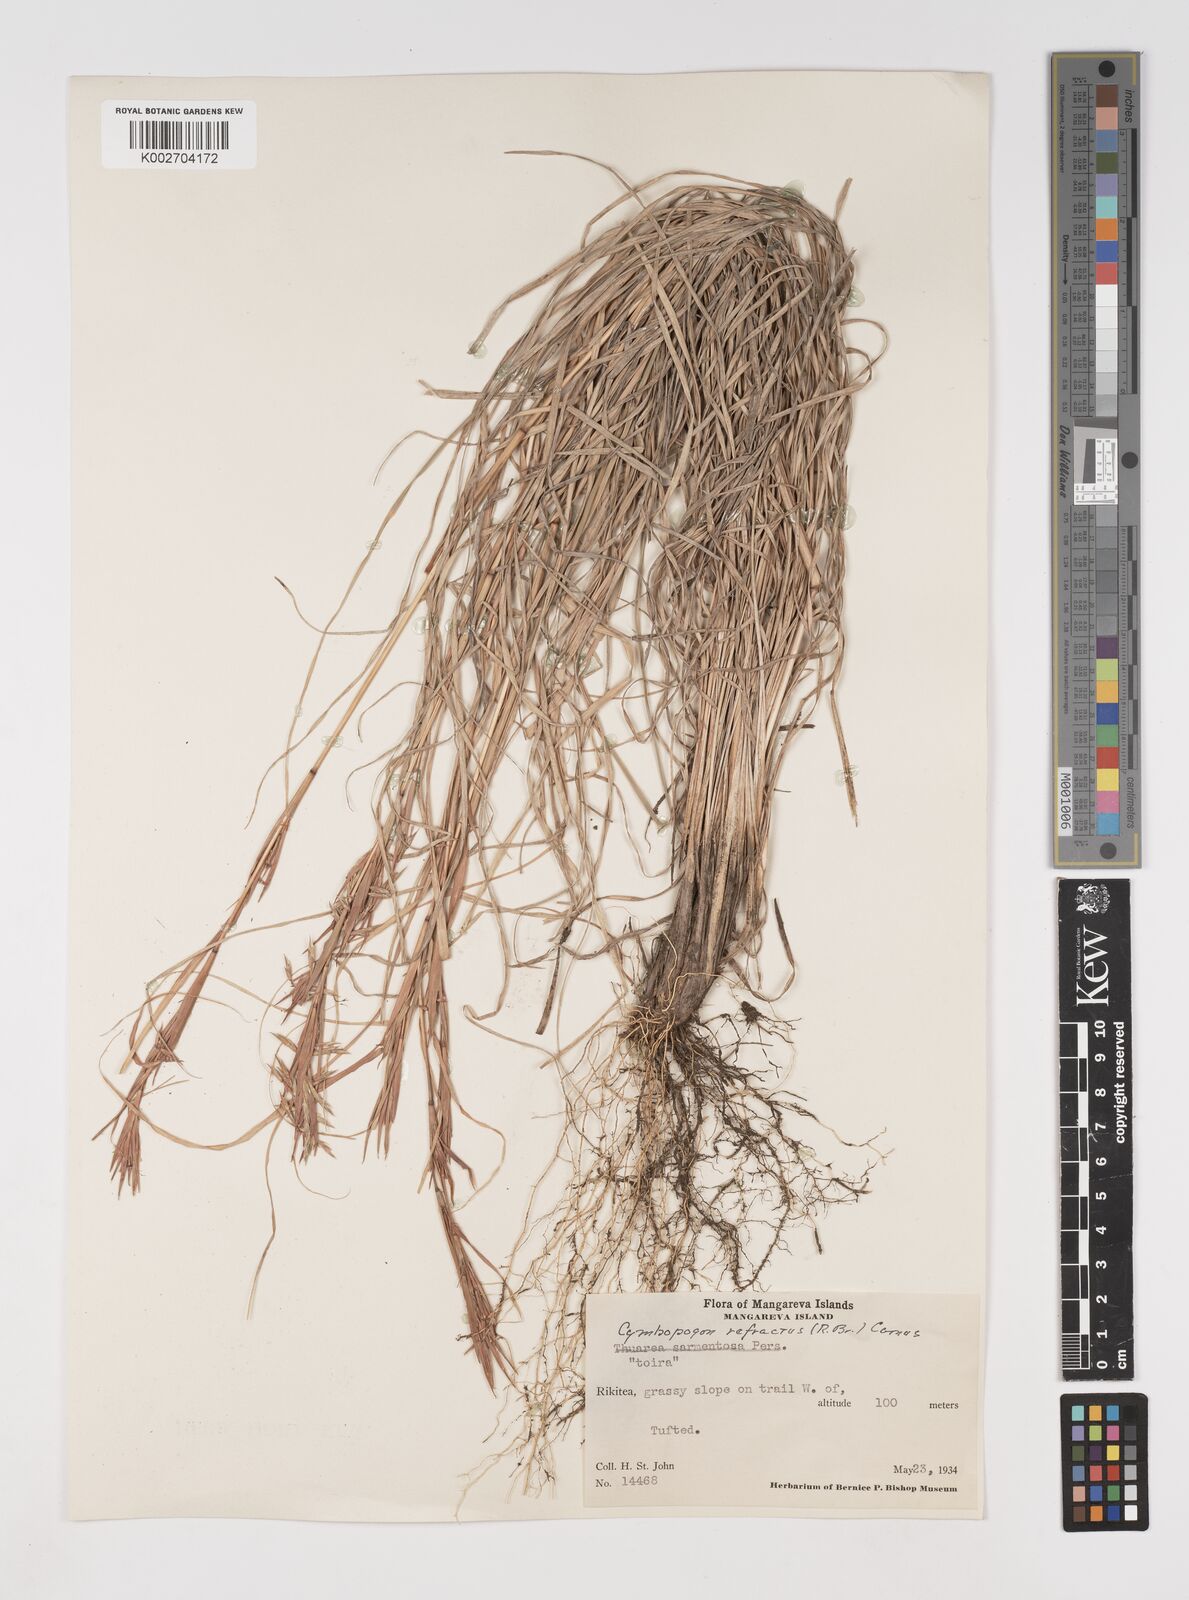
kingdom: Plantae
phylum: Tracheophyta
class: Liliopsida
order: Poales
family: Poaceae
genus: Cymbopogon
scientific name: Cymbopogon refractus
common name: Barbwire grass
